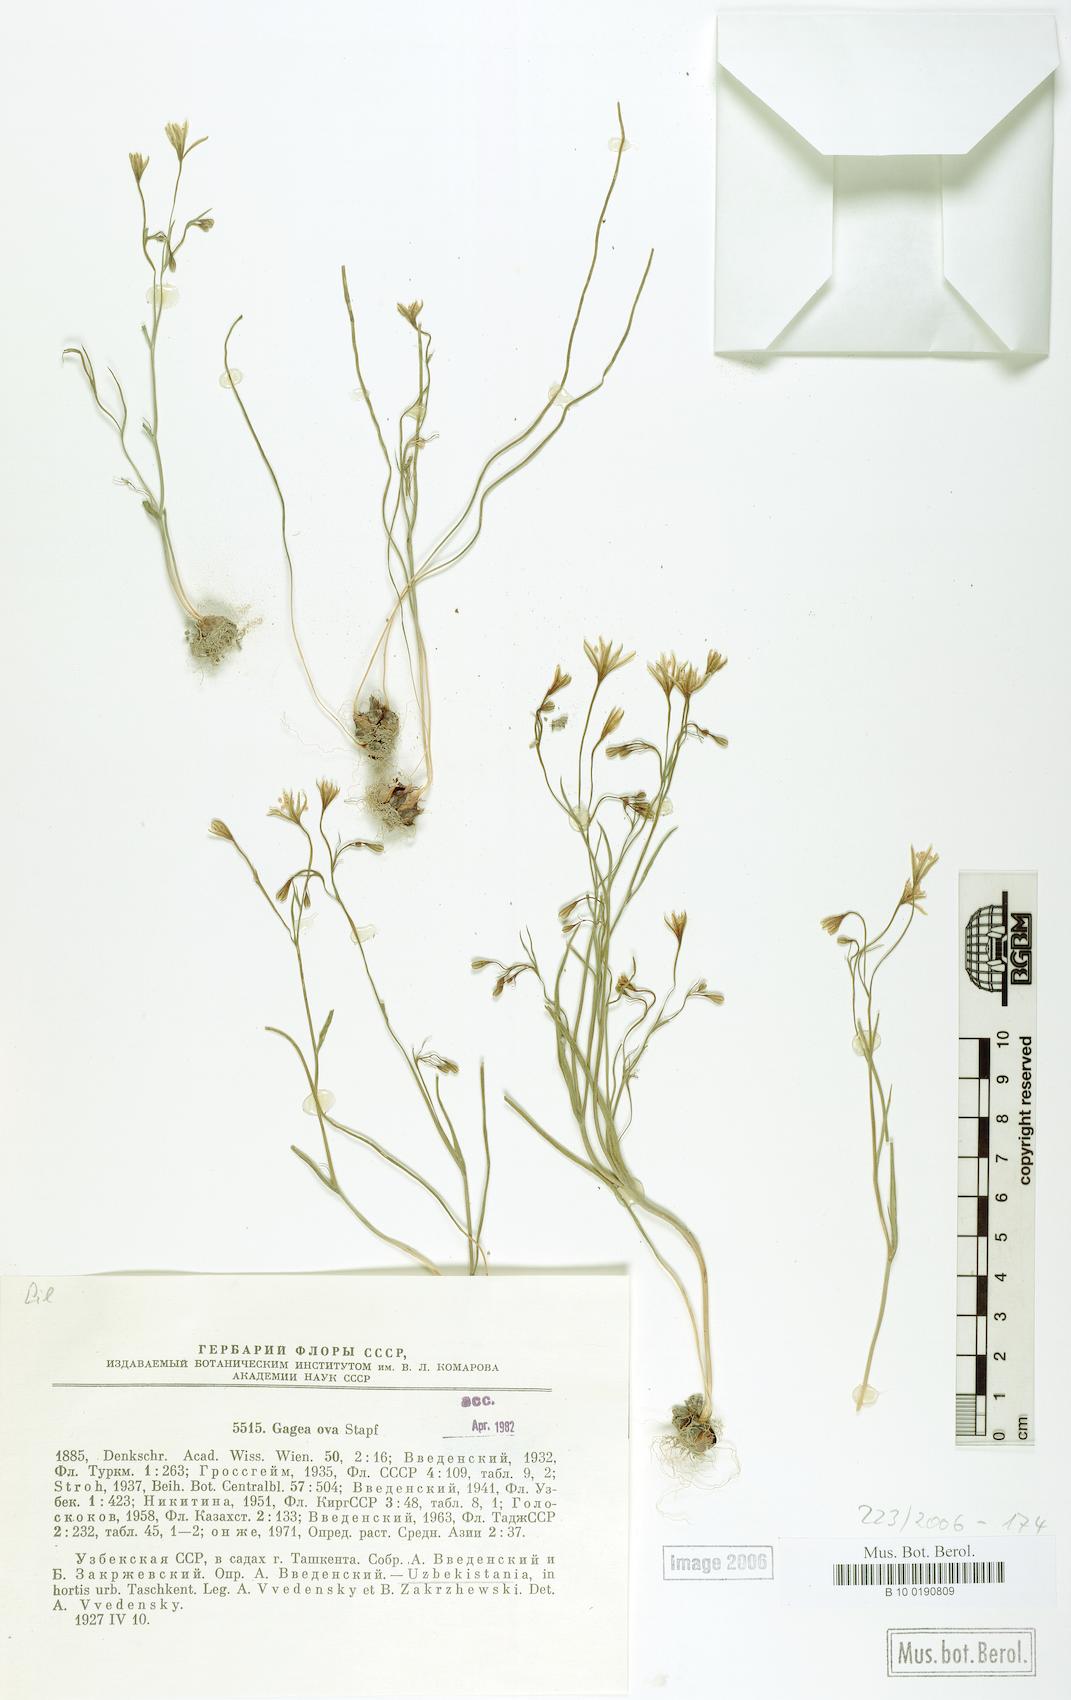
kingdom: Plantae
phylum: Tracheophyta
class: Liliopsida
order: Liliales
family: Liliaceae
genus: Gagea
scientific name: Gagea kunawurensis
